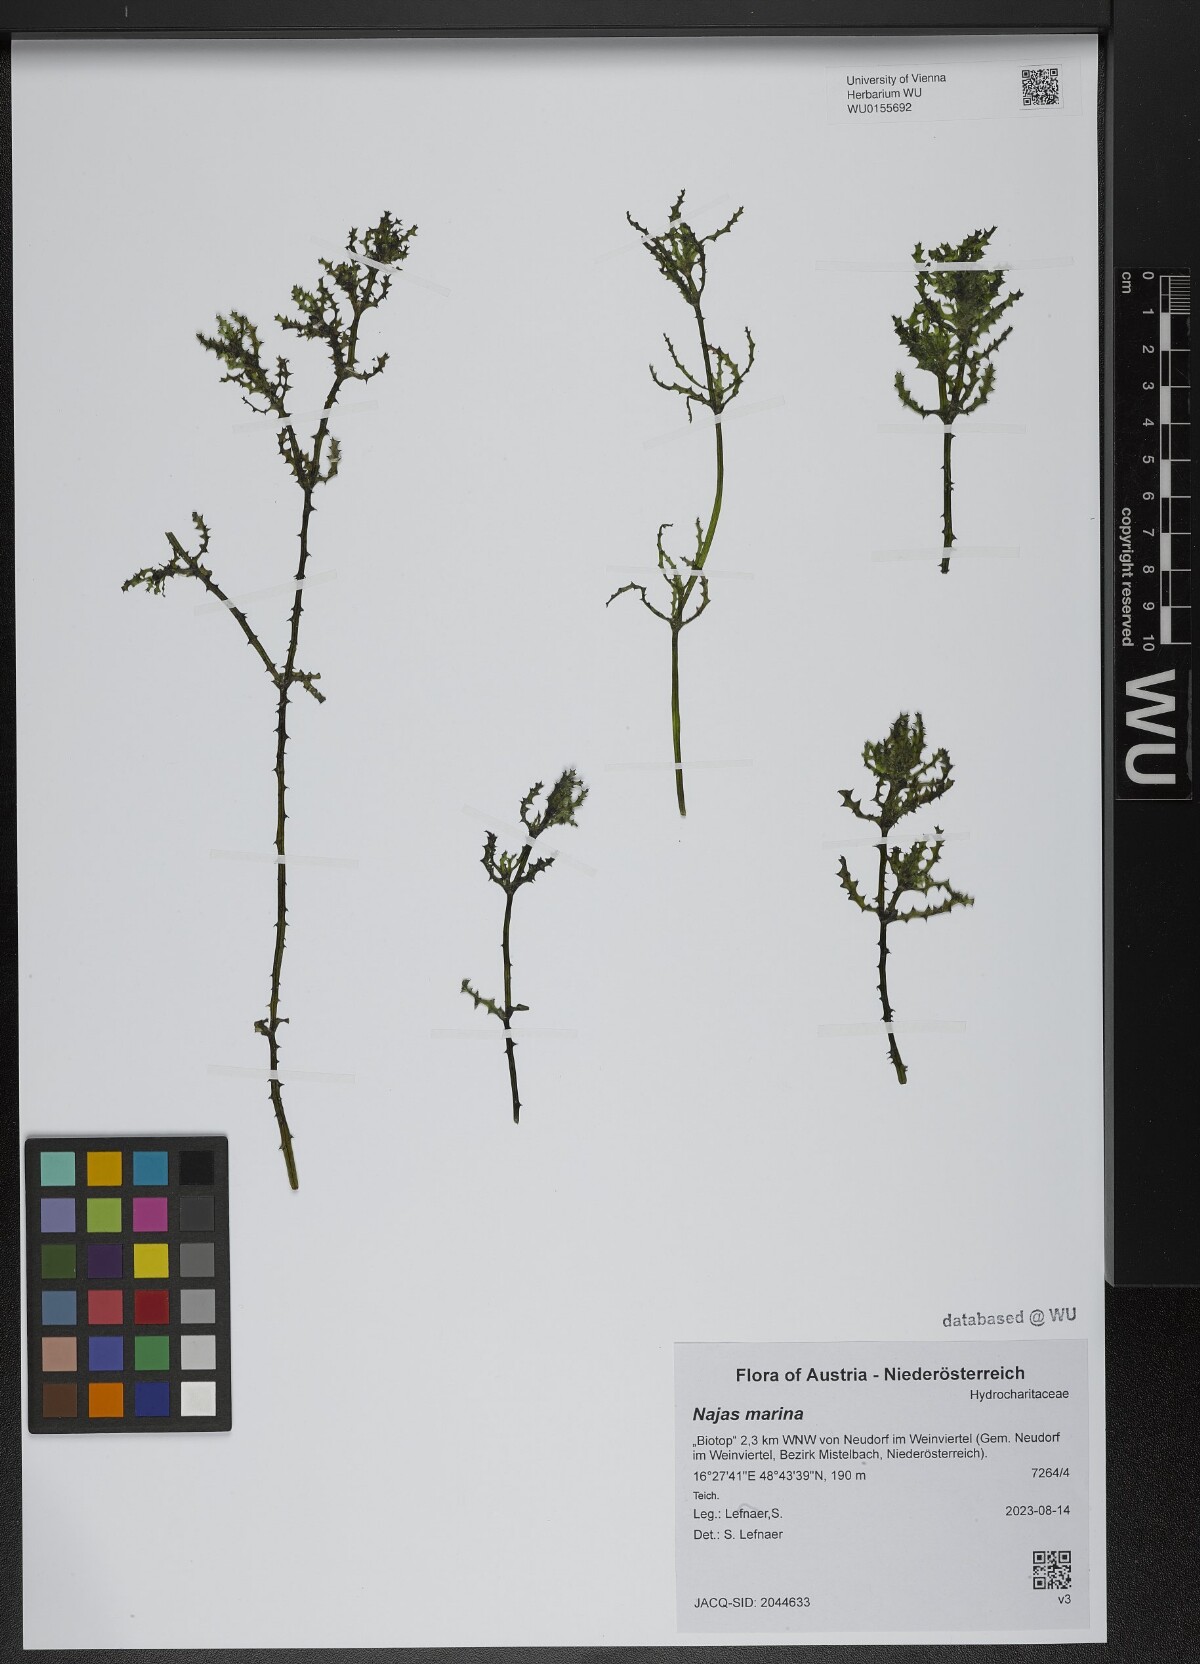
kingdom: Plantae
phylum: Tracheophyta
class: Liliopsida
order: Alismatales
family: Hydrocharitaceae
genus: Najas
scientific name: Najas marina
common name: Holly-leaved naiad
